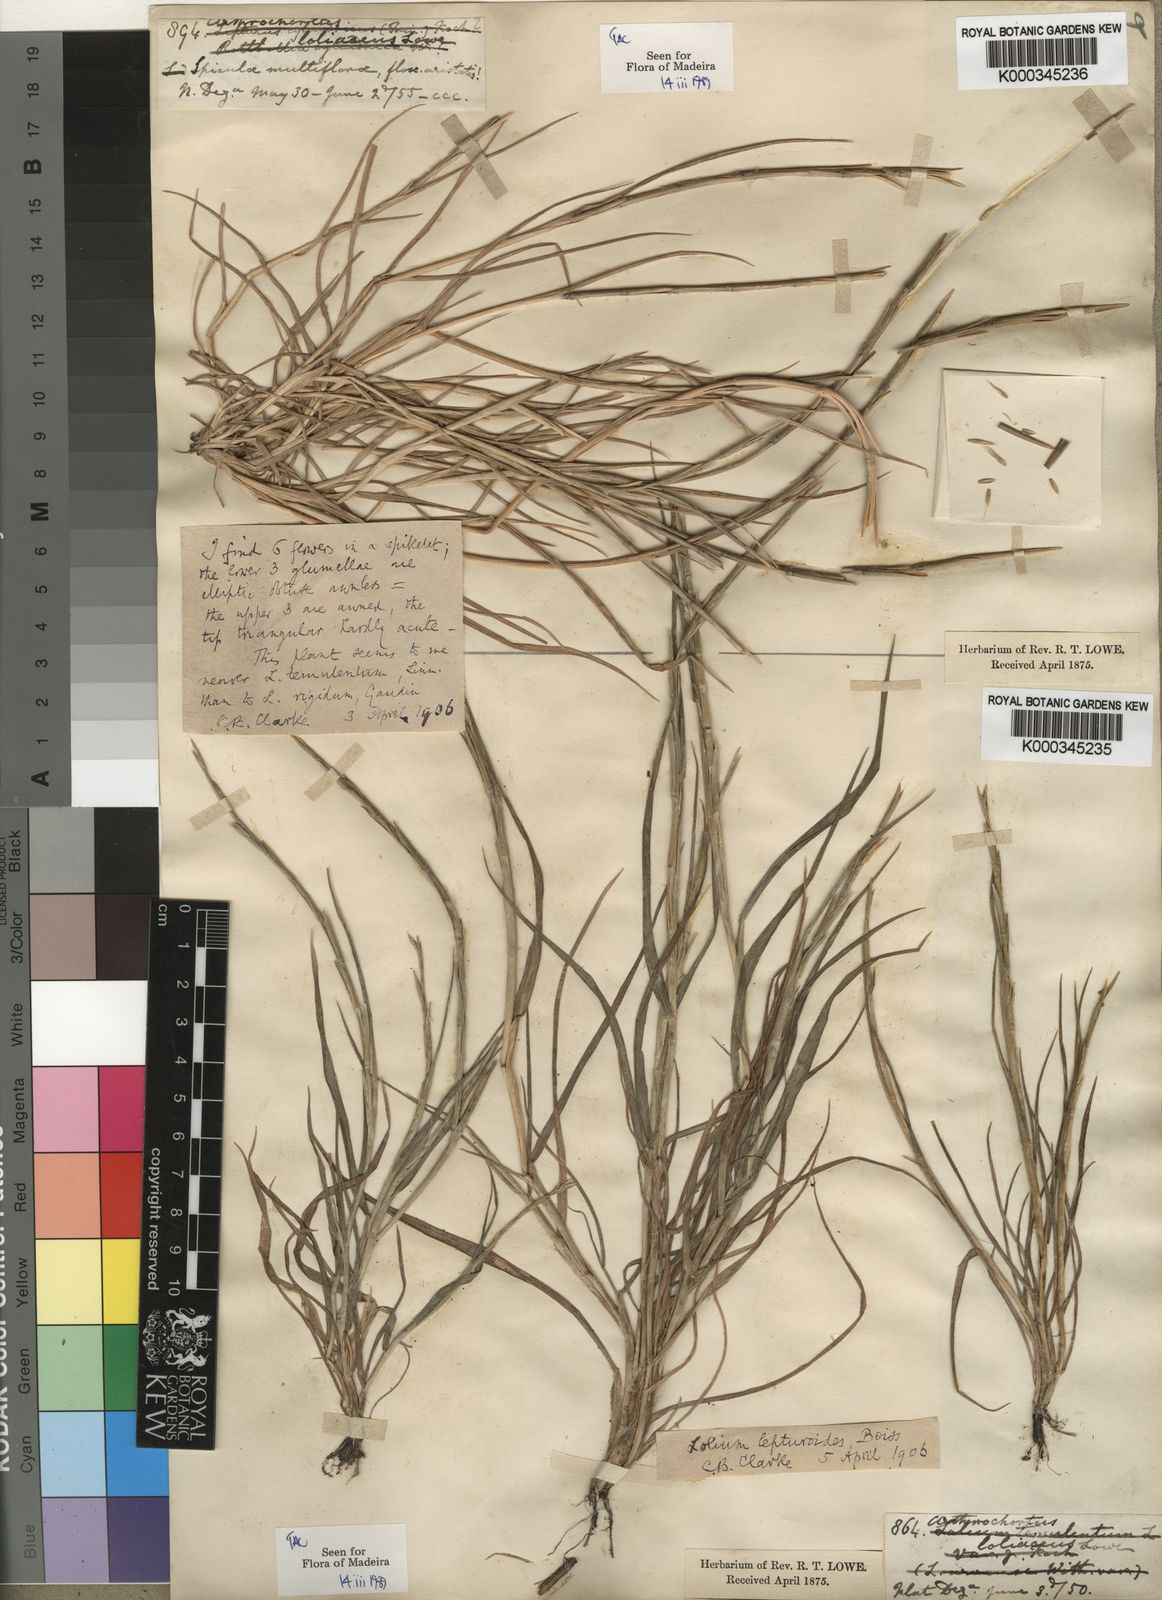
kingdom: Plantae
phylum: Tracheophyta
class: Liliopsida
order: Poales
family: Poaceae
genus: Festuca
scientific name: Festuca Vulpia rigida
